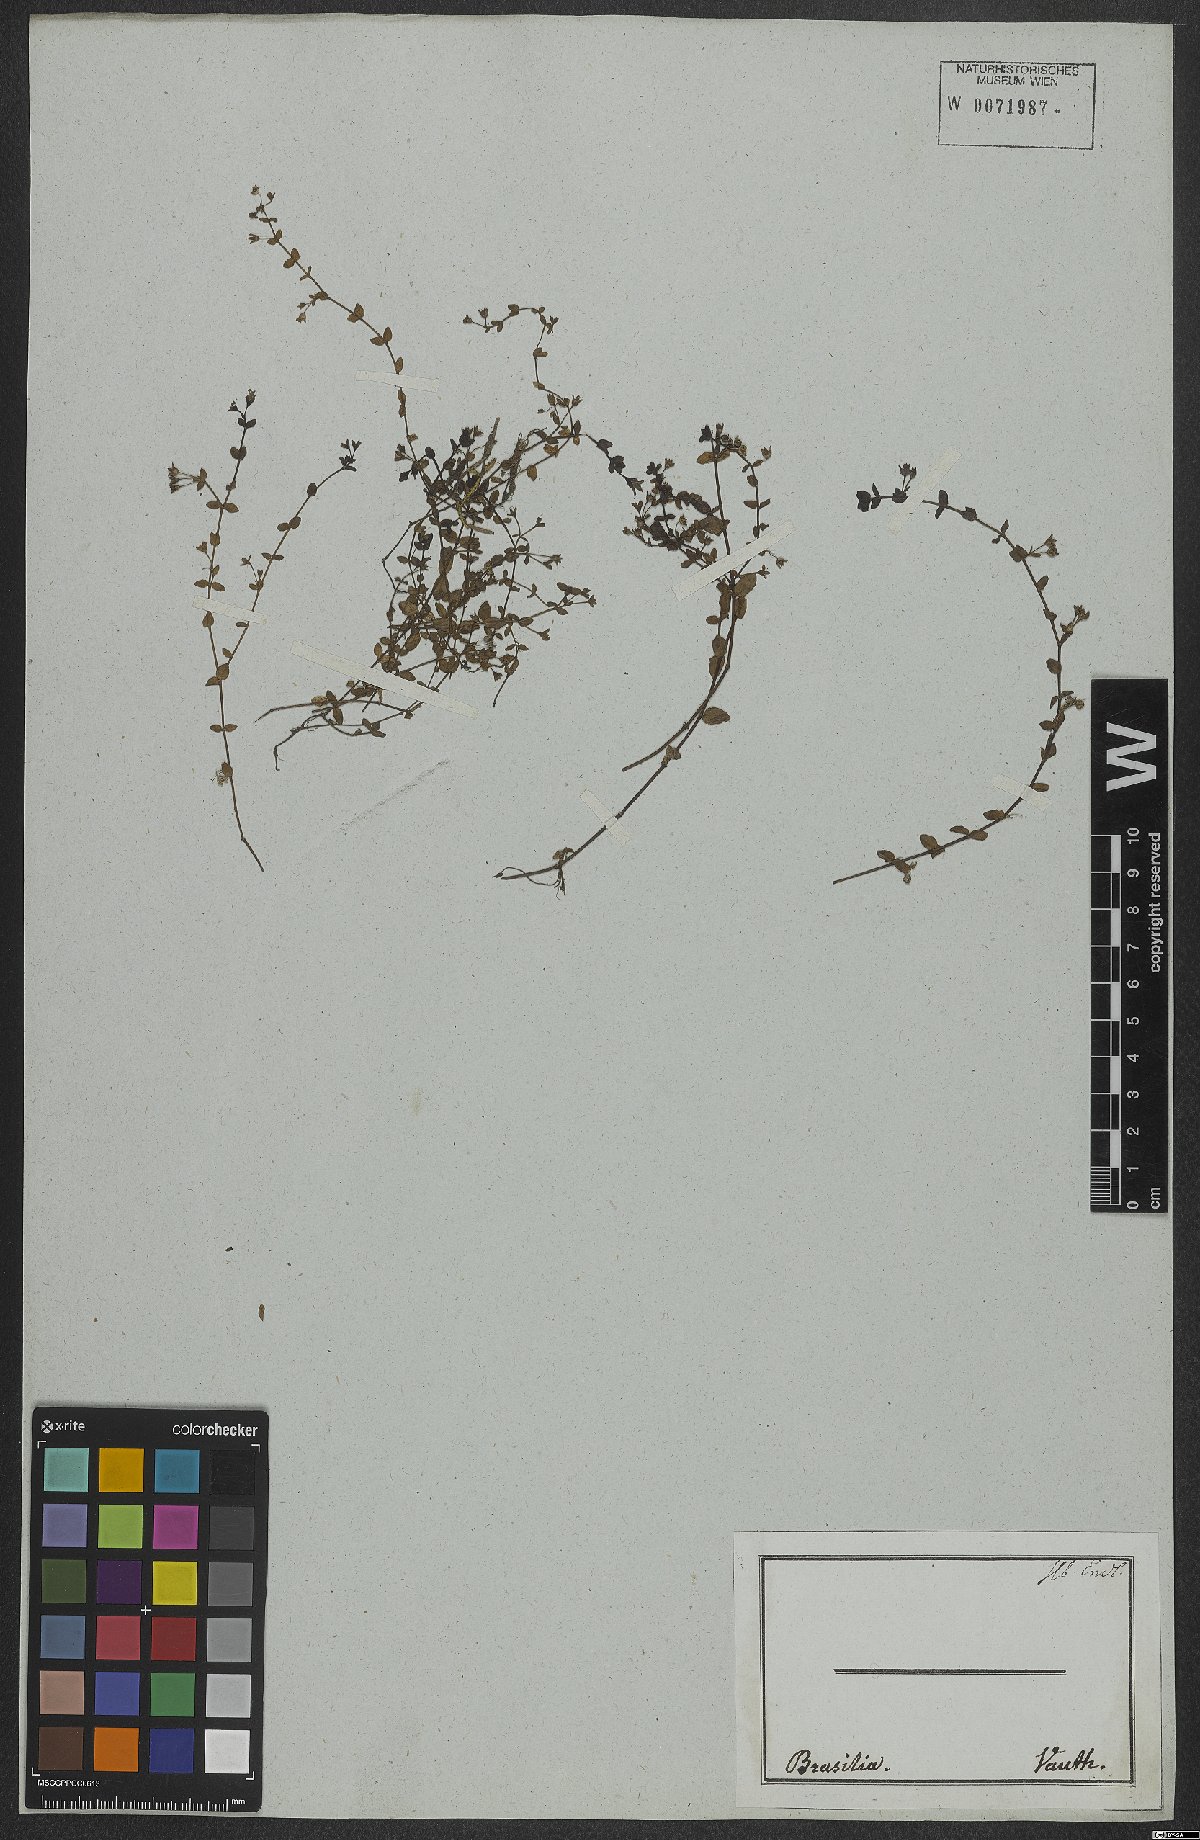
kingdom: Plantae
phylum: Tracheophyta
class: Magnoliopsida
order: Gentianales
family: Rubiaceae
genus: Arcytophyllum
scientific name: Arcytophyllum
